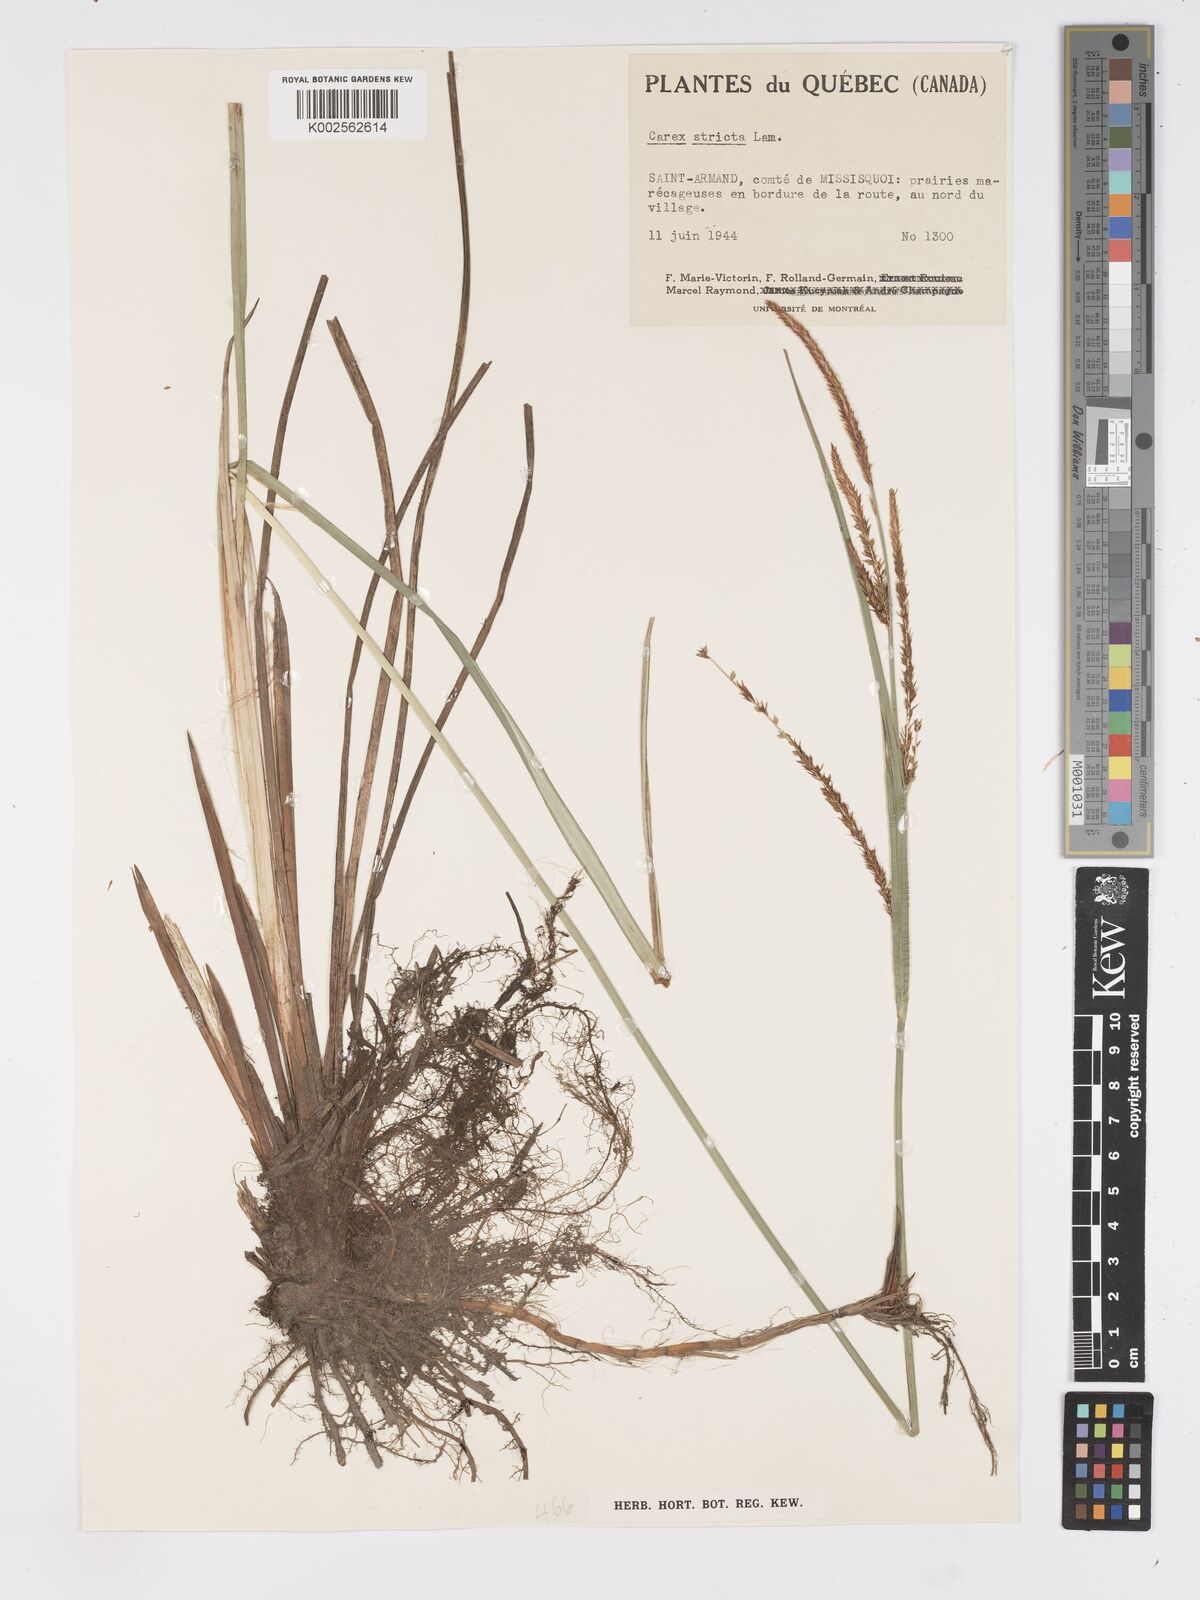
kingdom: Plantae
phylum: Tracheophyta
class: Liliopsida
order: Poales
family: Cyperaceae
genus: Carex
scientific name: Carex stricta
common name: Hummock sedge
